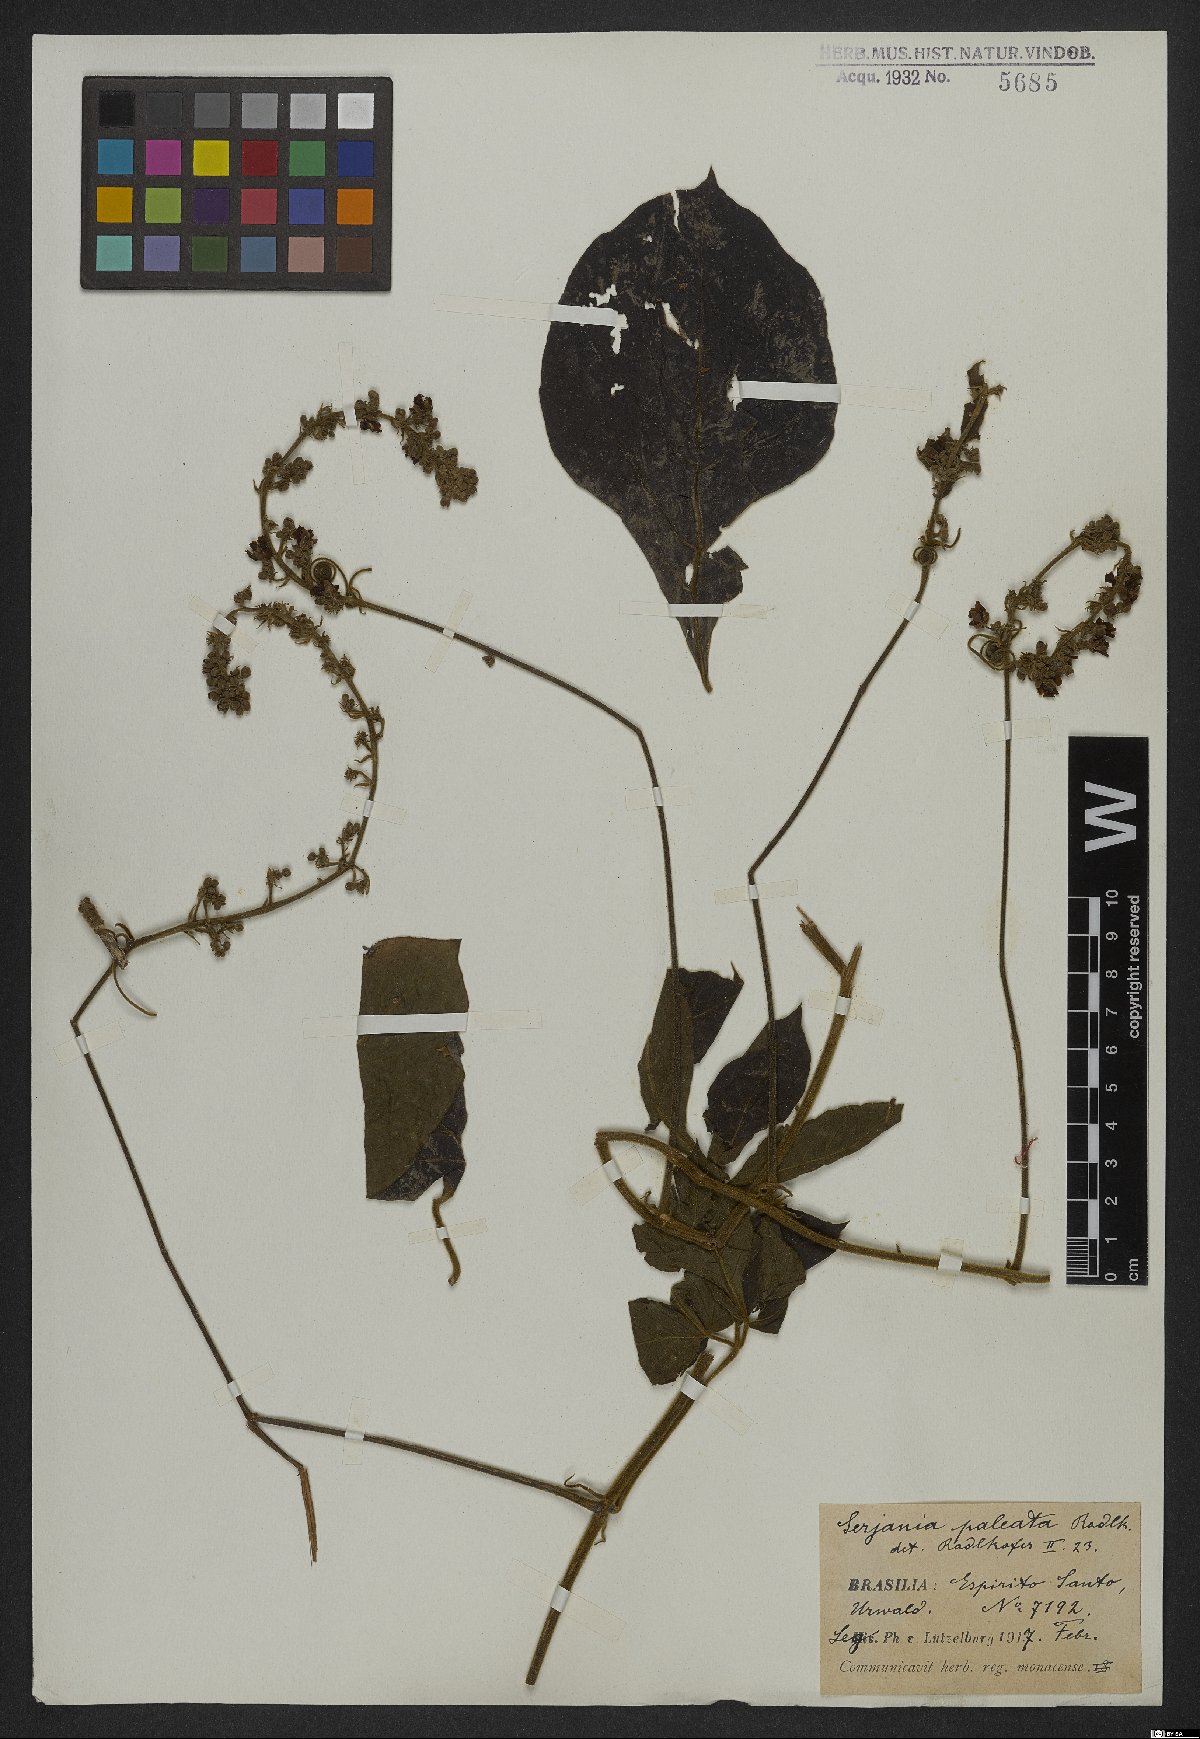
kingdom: Plantae
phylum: Tracheophyta
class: Magnoliopsida
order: Sapindales
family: Sapindaceae
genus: Serjania
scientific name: Serjania paleata
